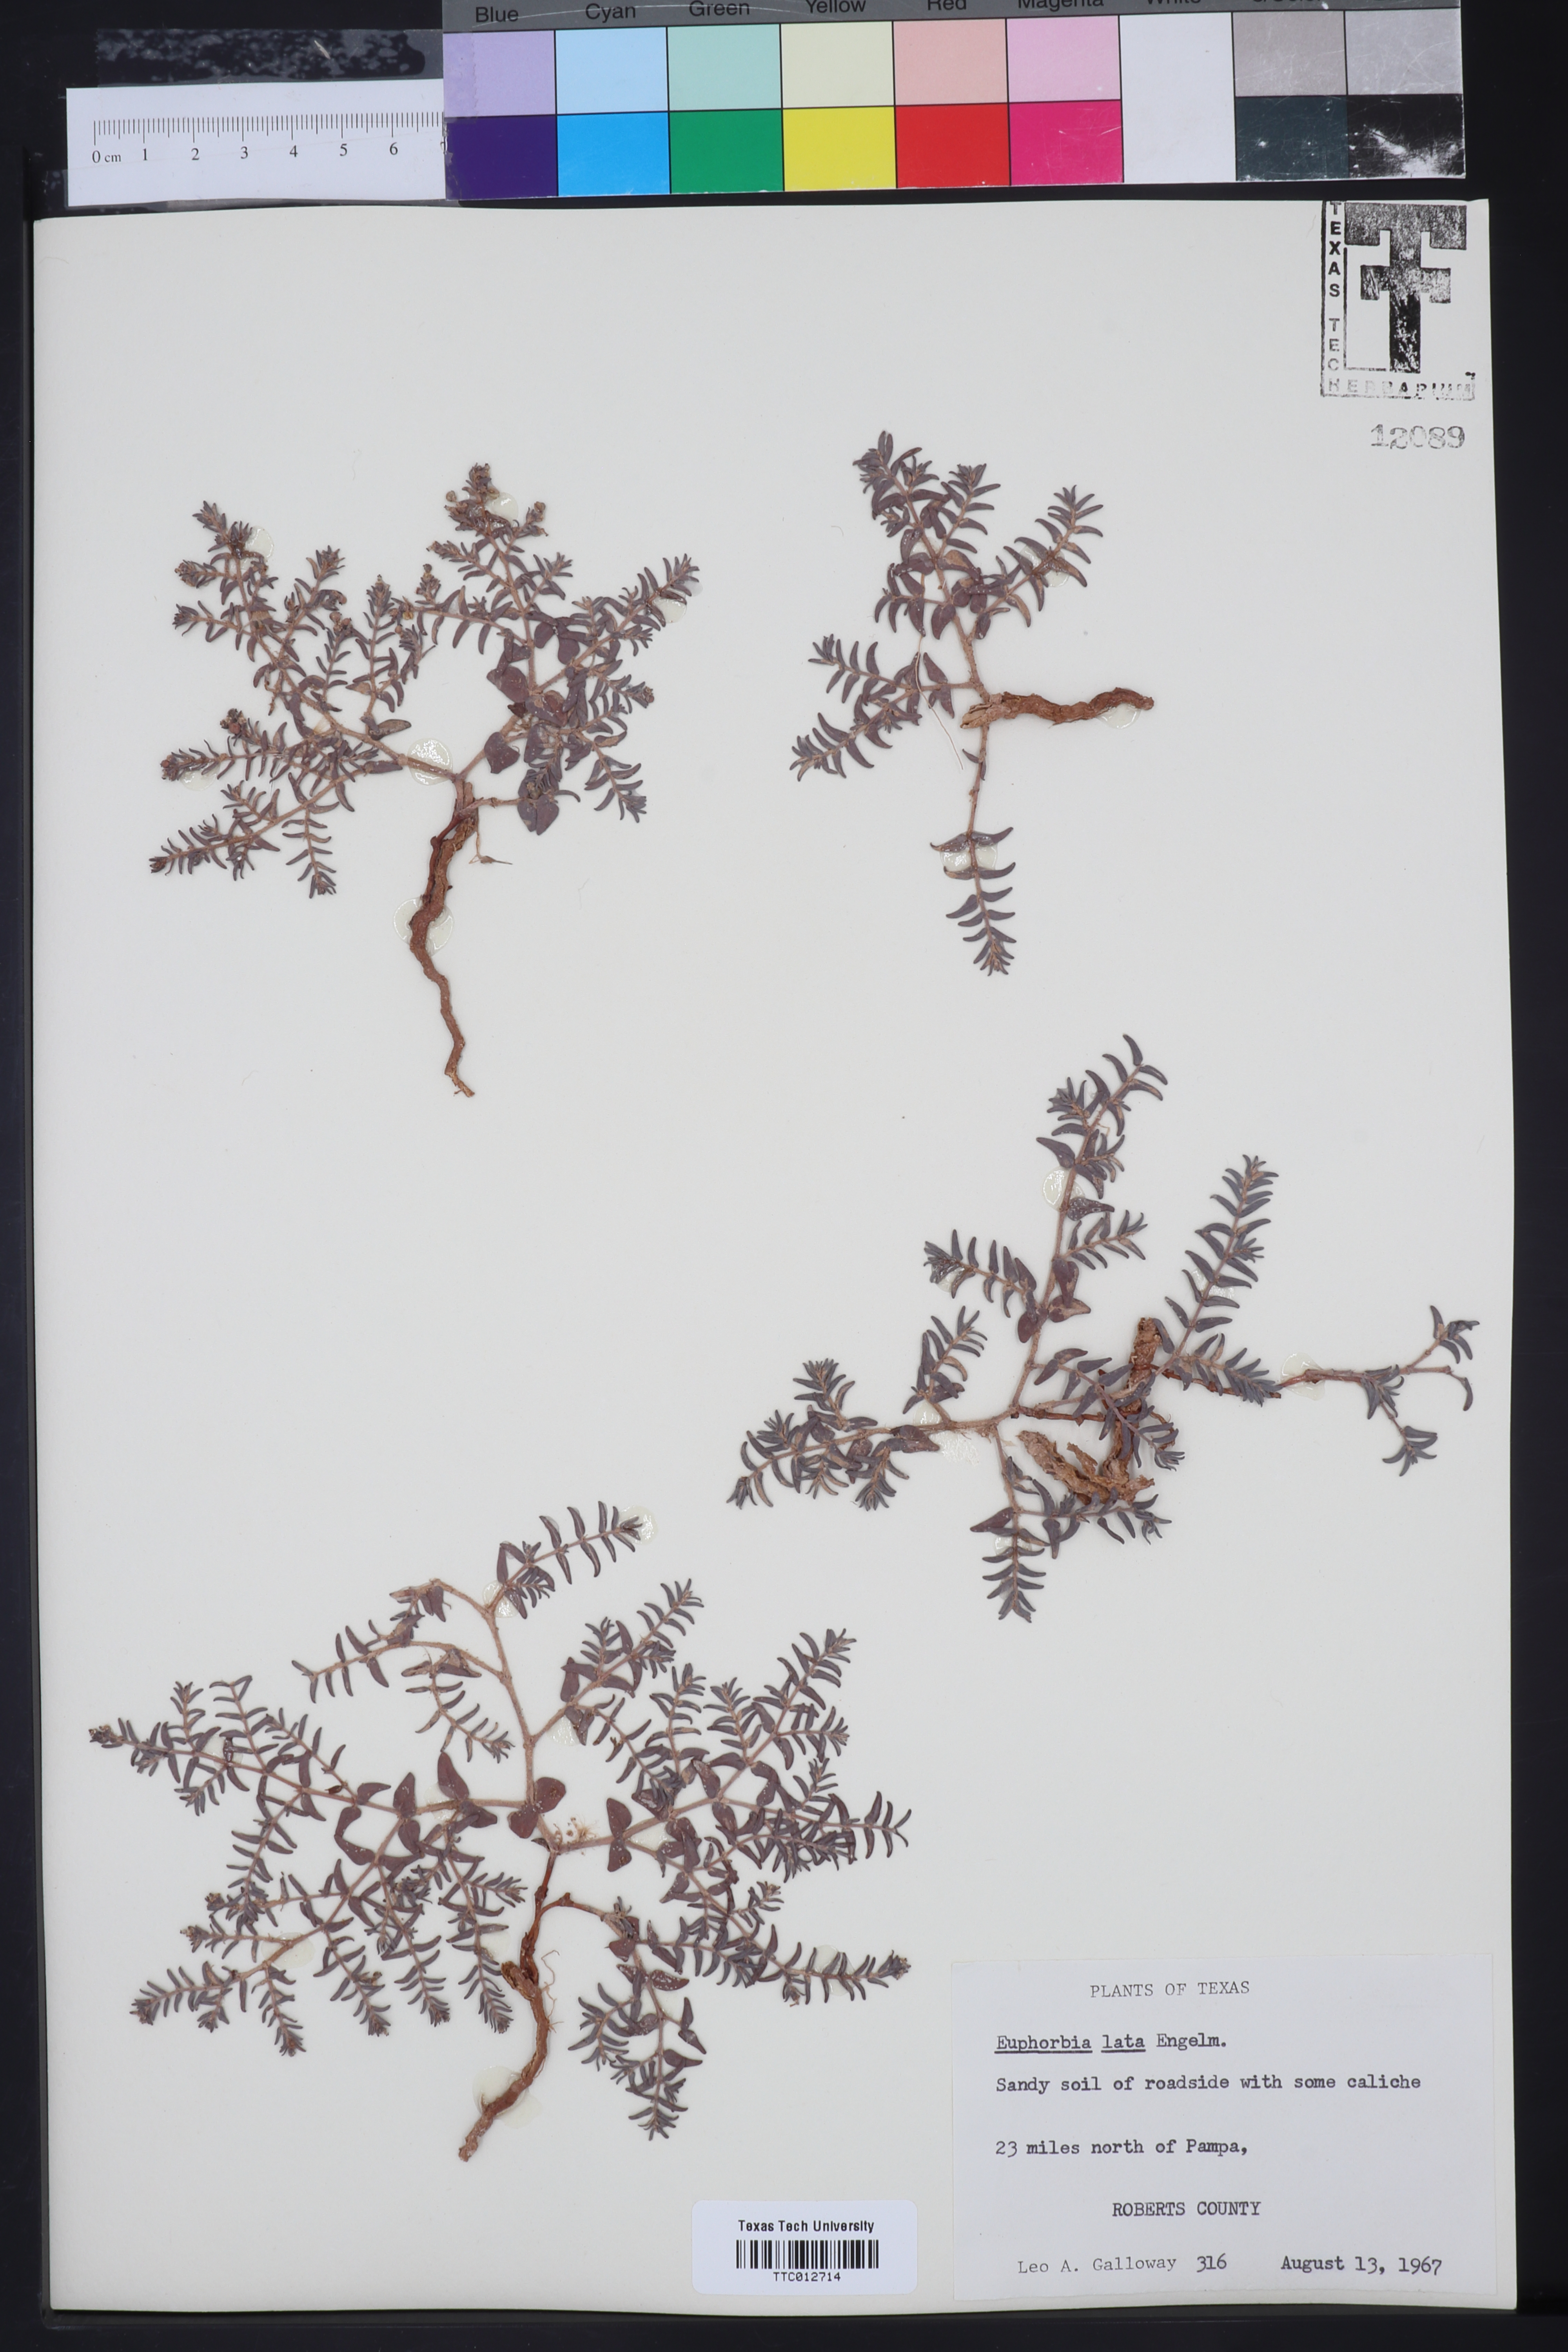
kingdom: Plantae
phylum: Tracheophyta
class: Magnoliopsida
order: Malpighiales
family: Euphorbiaceae
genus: Euphorbia
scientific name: Euphorbia lata
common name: Hoary euphorbia
